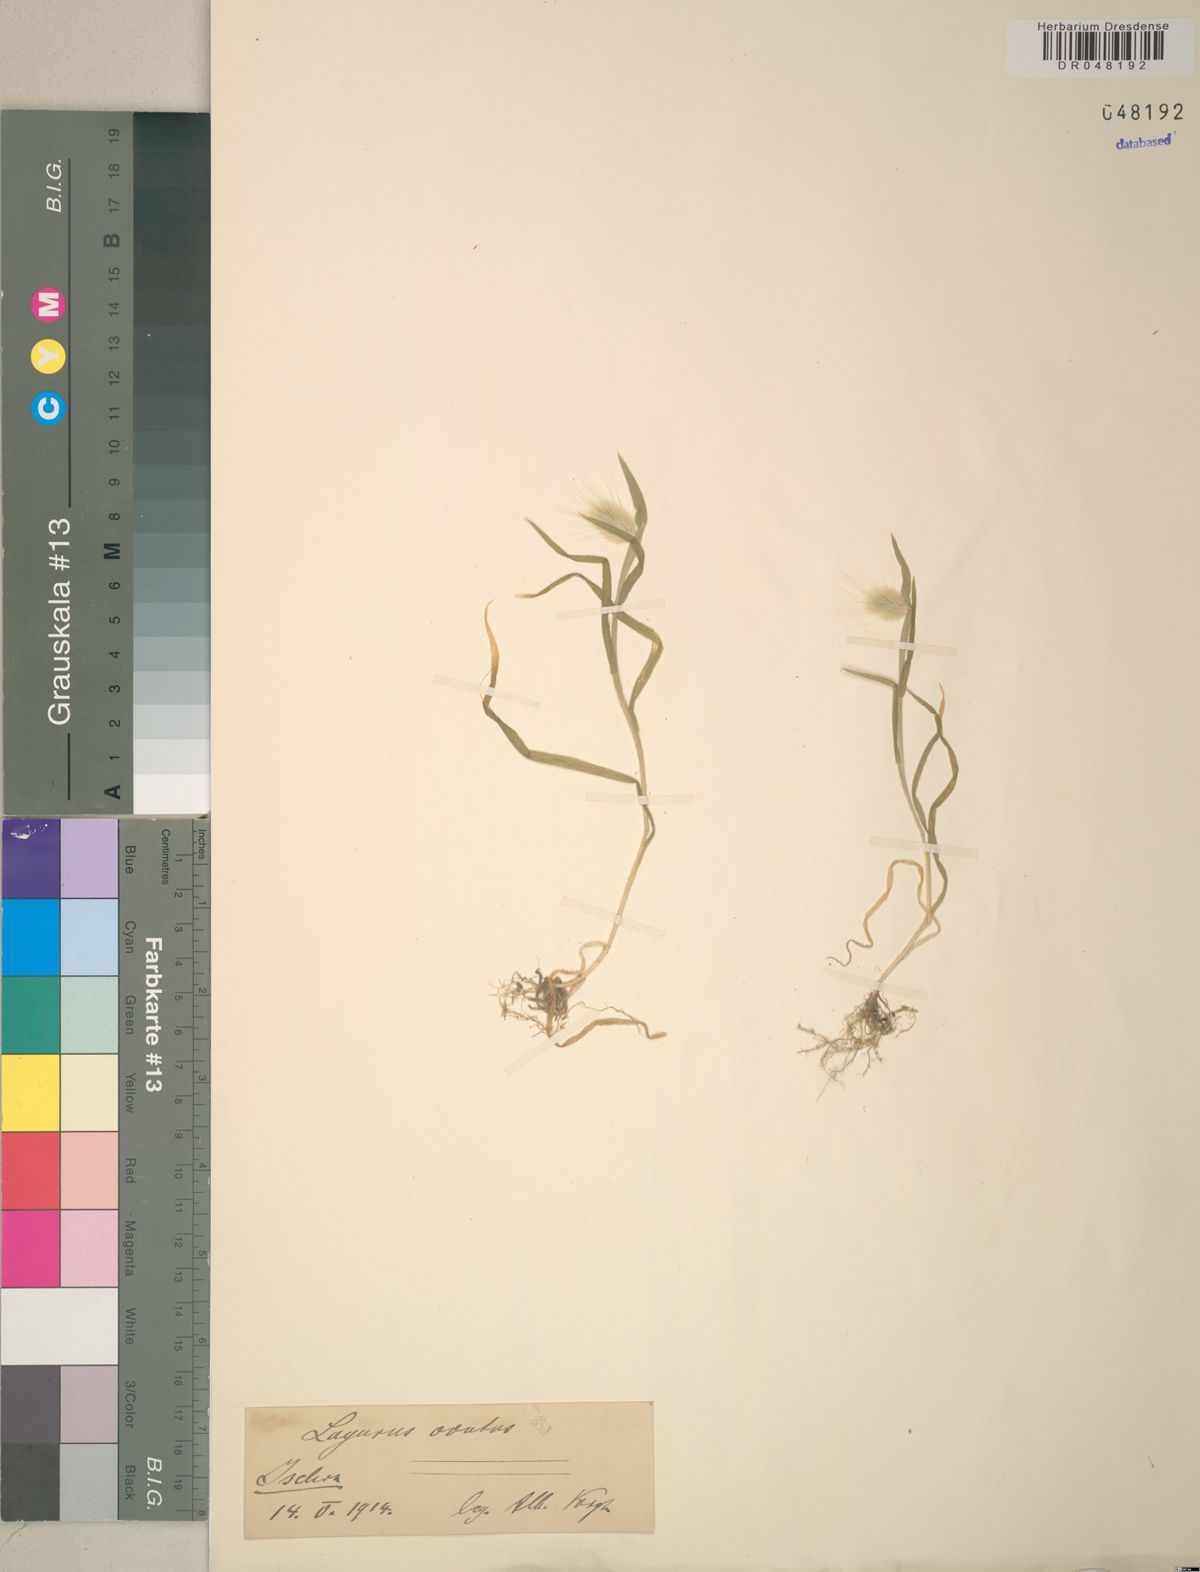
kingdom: Plantae
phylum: Tracheophyta
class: Liliopsida
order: Poales
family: Poaceae
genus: Lagurus
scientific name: Lagurus ovatus
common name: Hare's-tail
